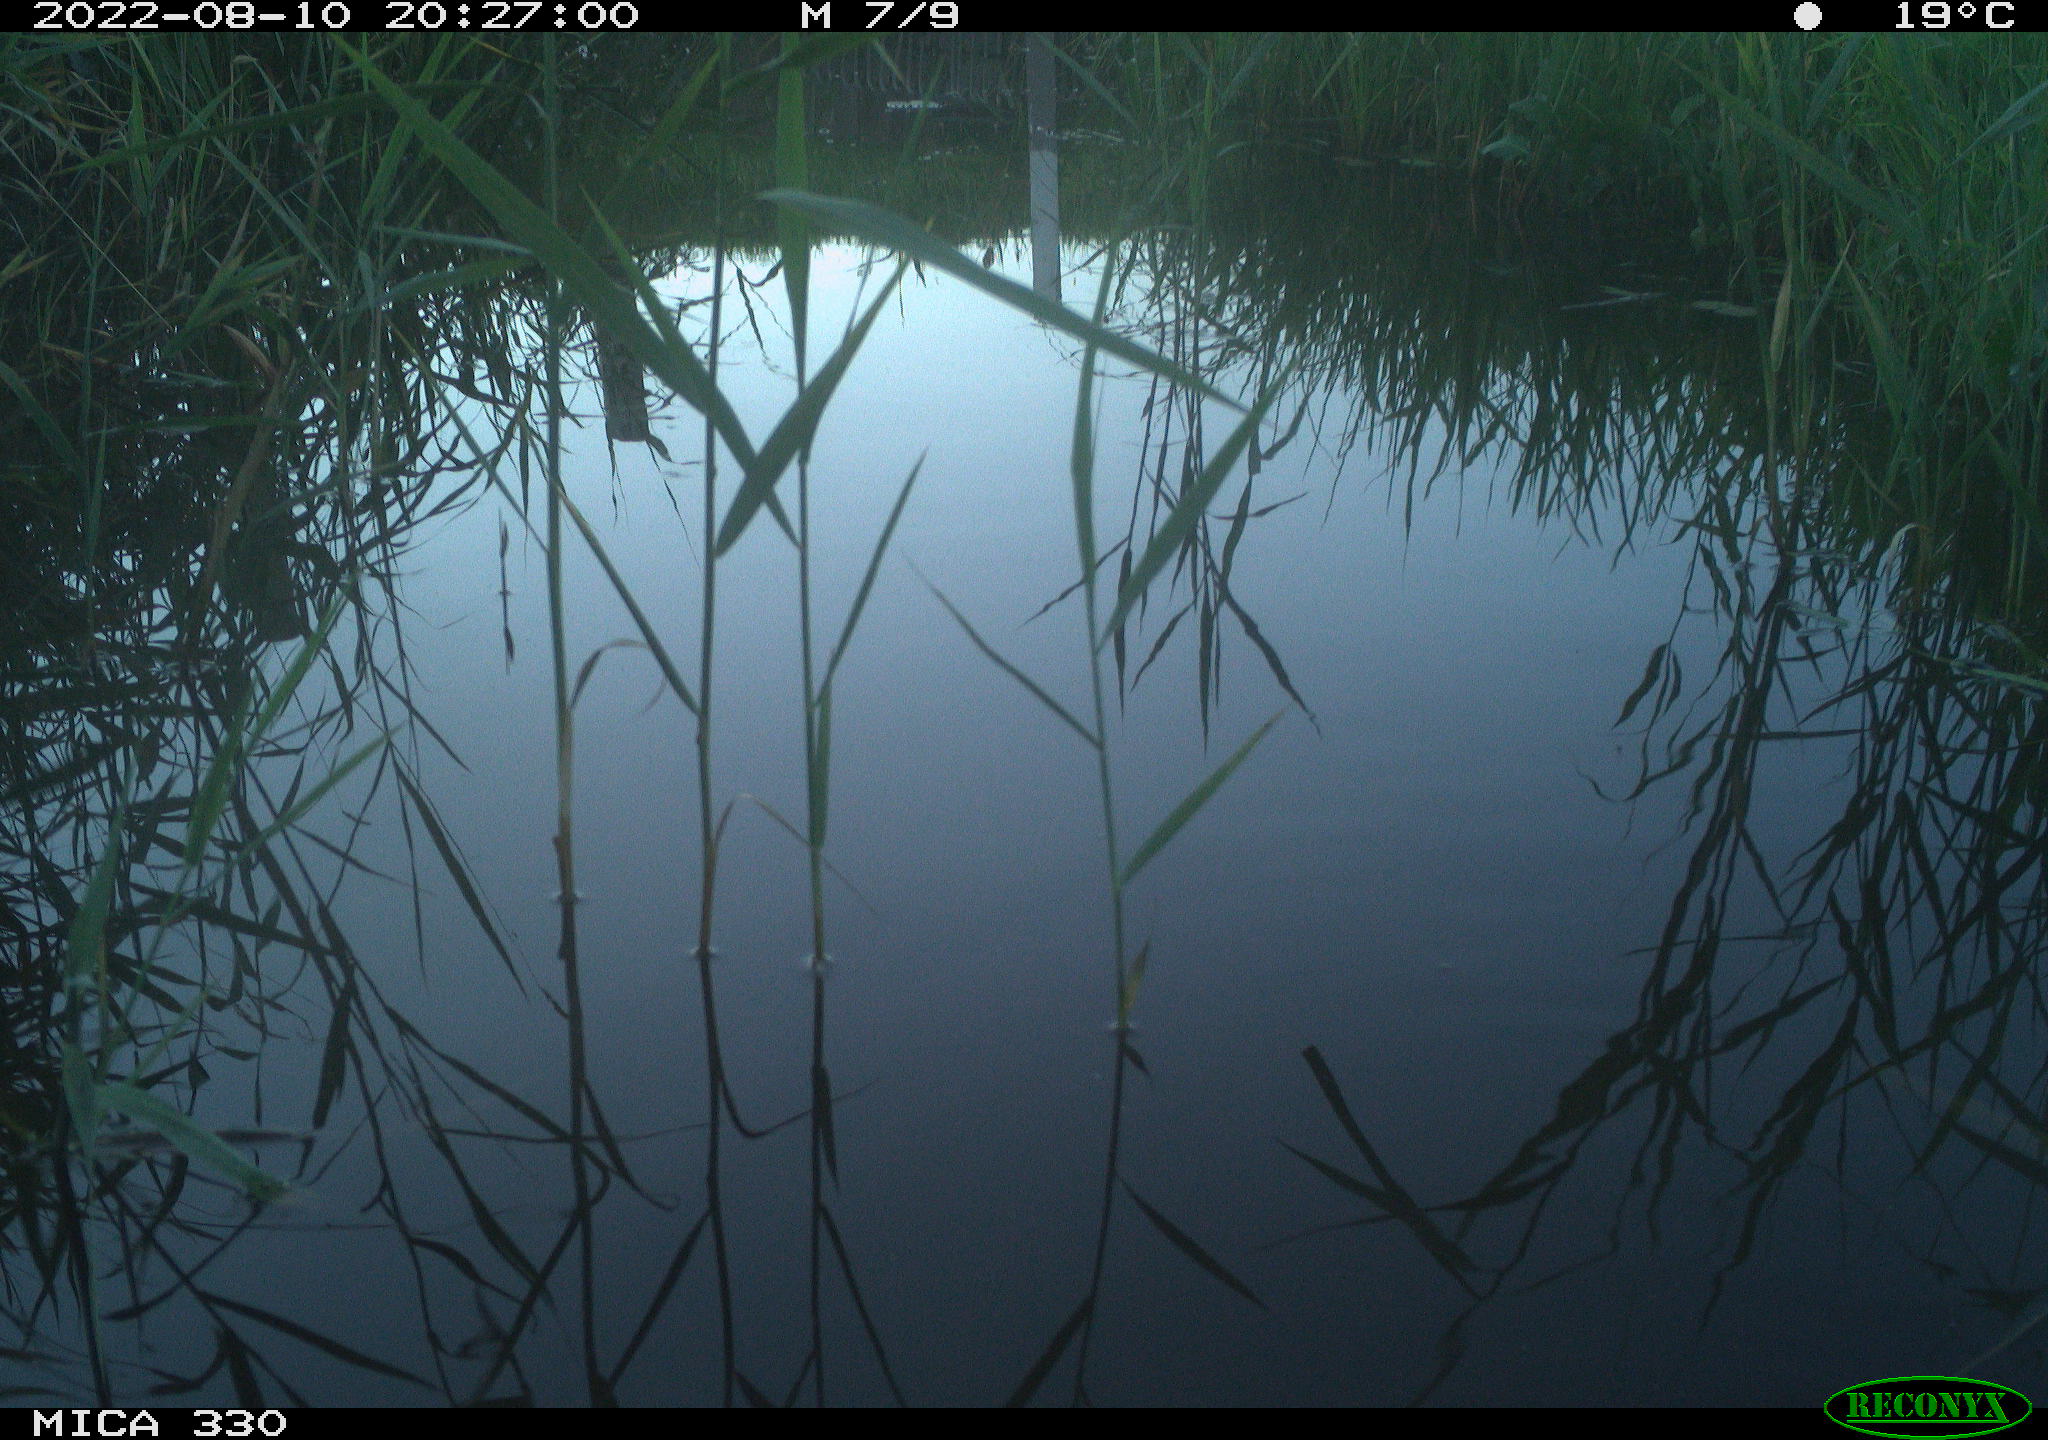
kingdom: Animalia
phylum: Chordata
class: Aves
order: Gruiformes
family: Rallidae
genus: Gallinula
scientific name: Gallinula chloropus
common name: Common moorhen
